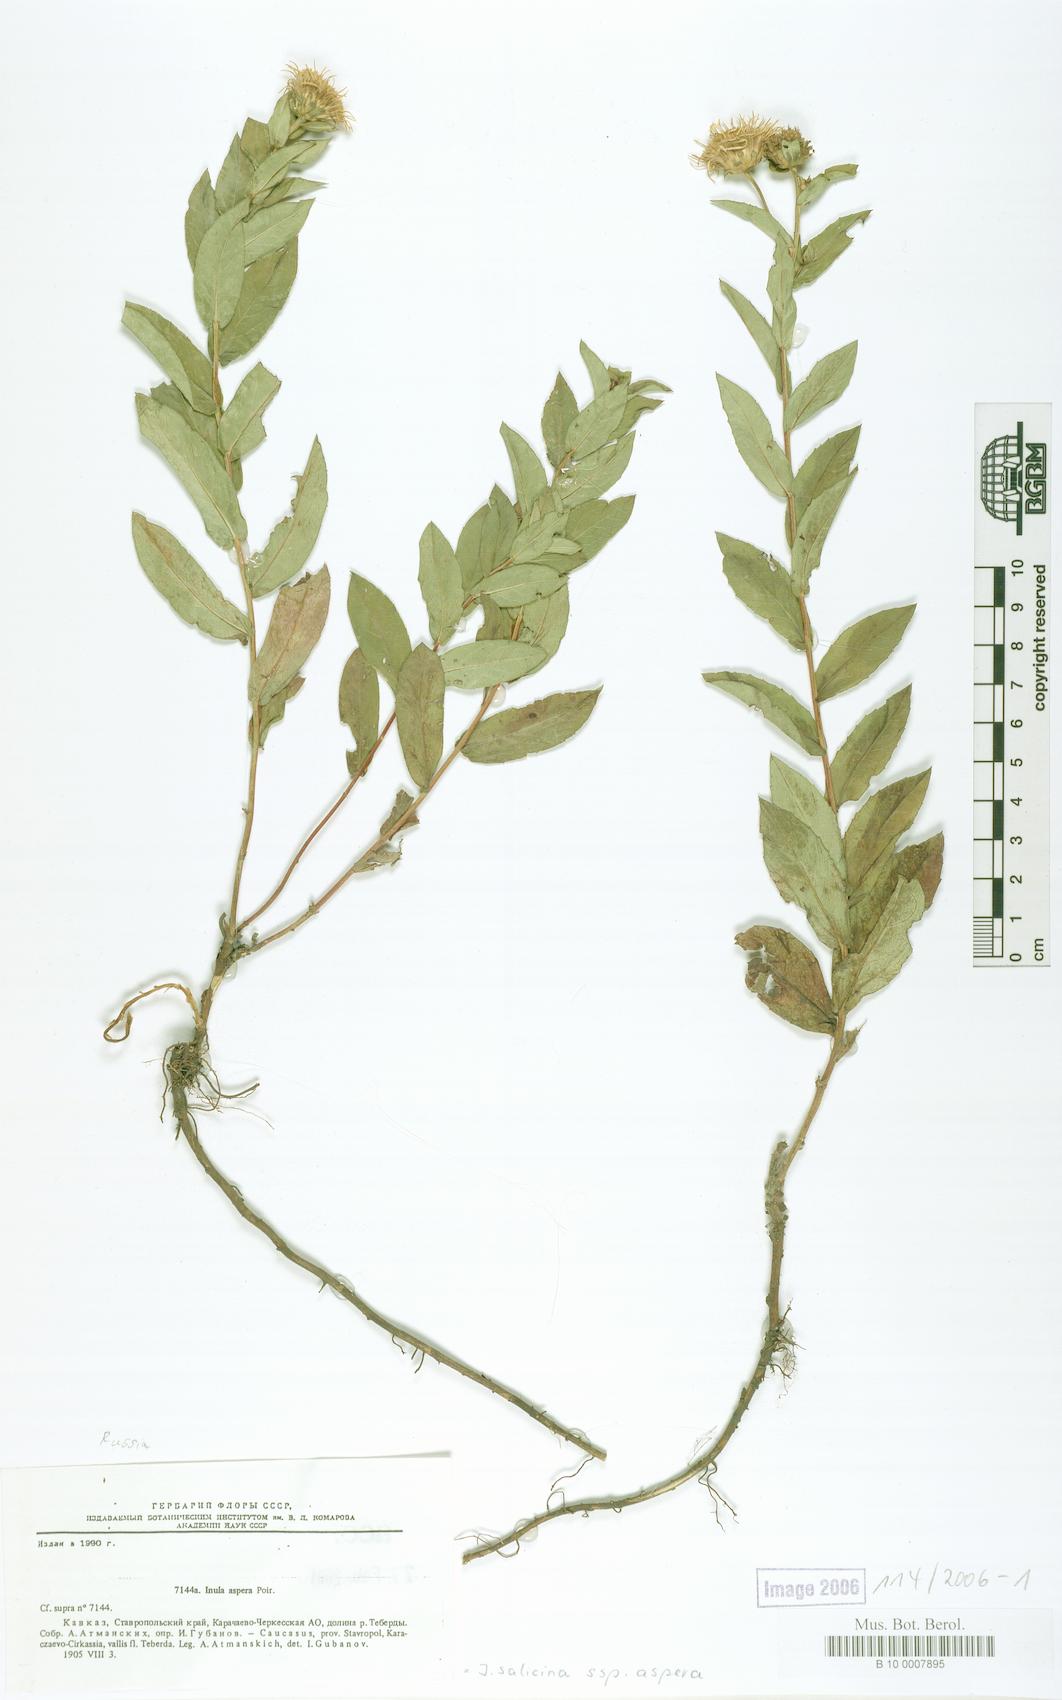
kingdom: Plantae
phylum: Tracheophyta
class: Magnoliopsida
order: Asterales
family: Asteraceae
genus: Pentanema
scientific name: Pentanema salicinum
